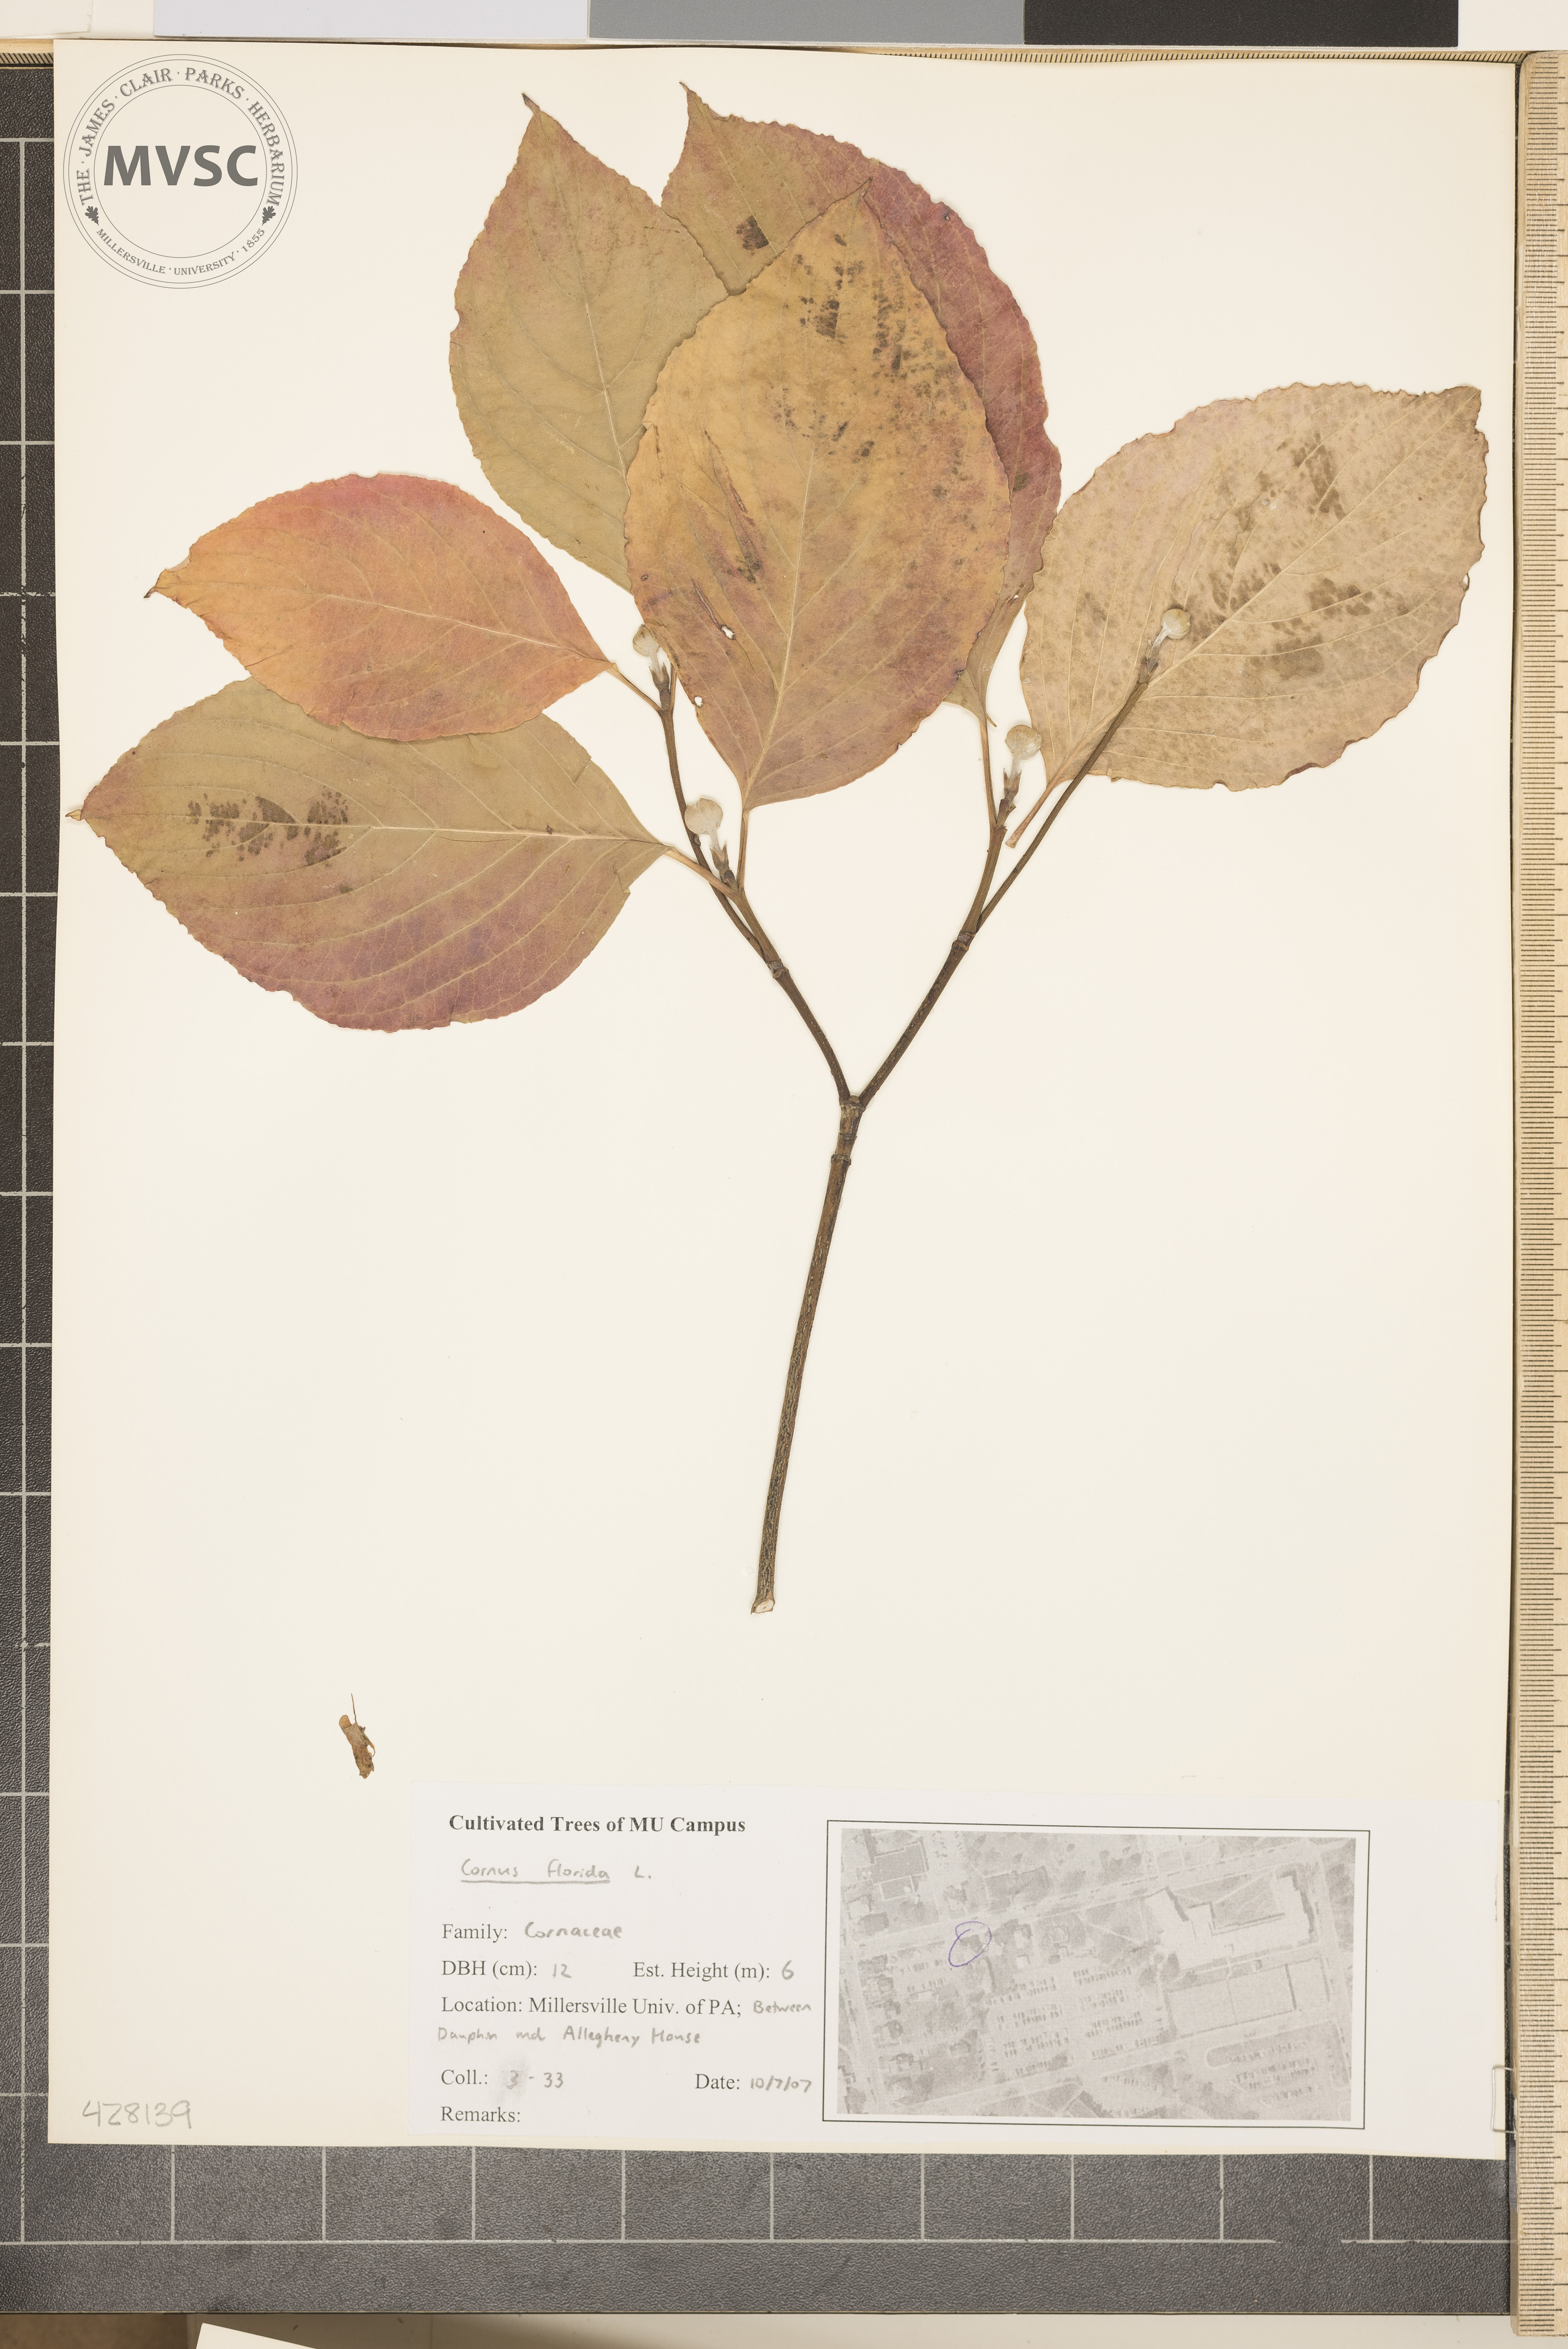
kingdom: Plantae
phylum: Tracheophyta
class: Magnoliopsida
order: Cornales
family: Cornaceae
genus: Cornus
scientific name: Cornus florida
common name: Flowering Dogwood
